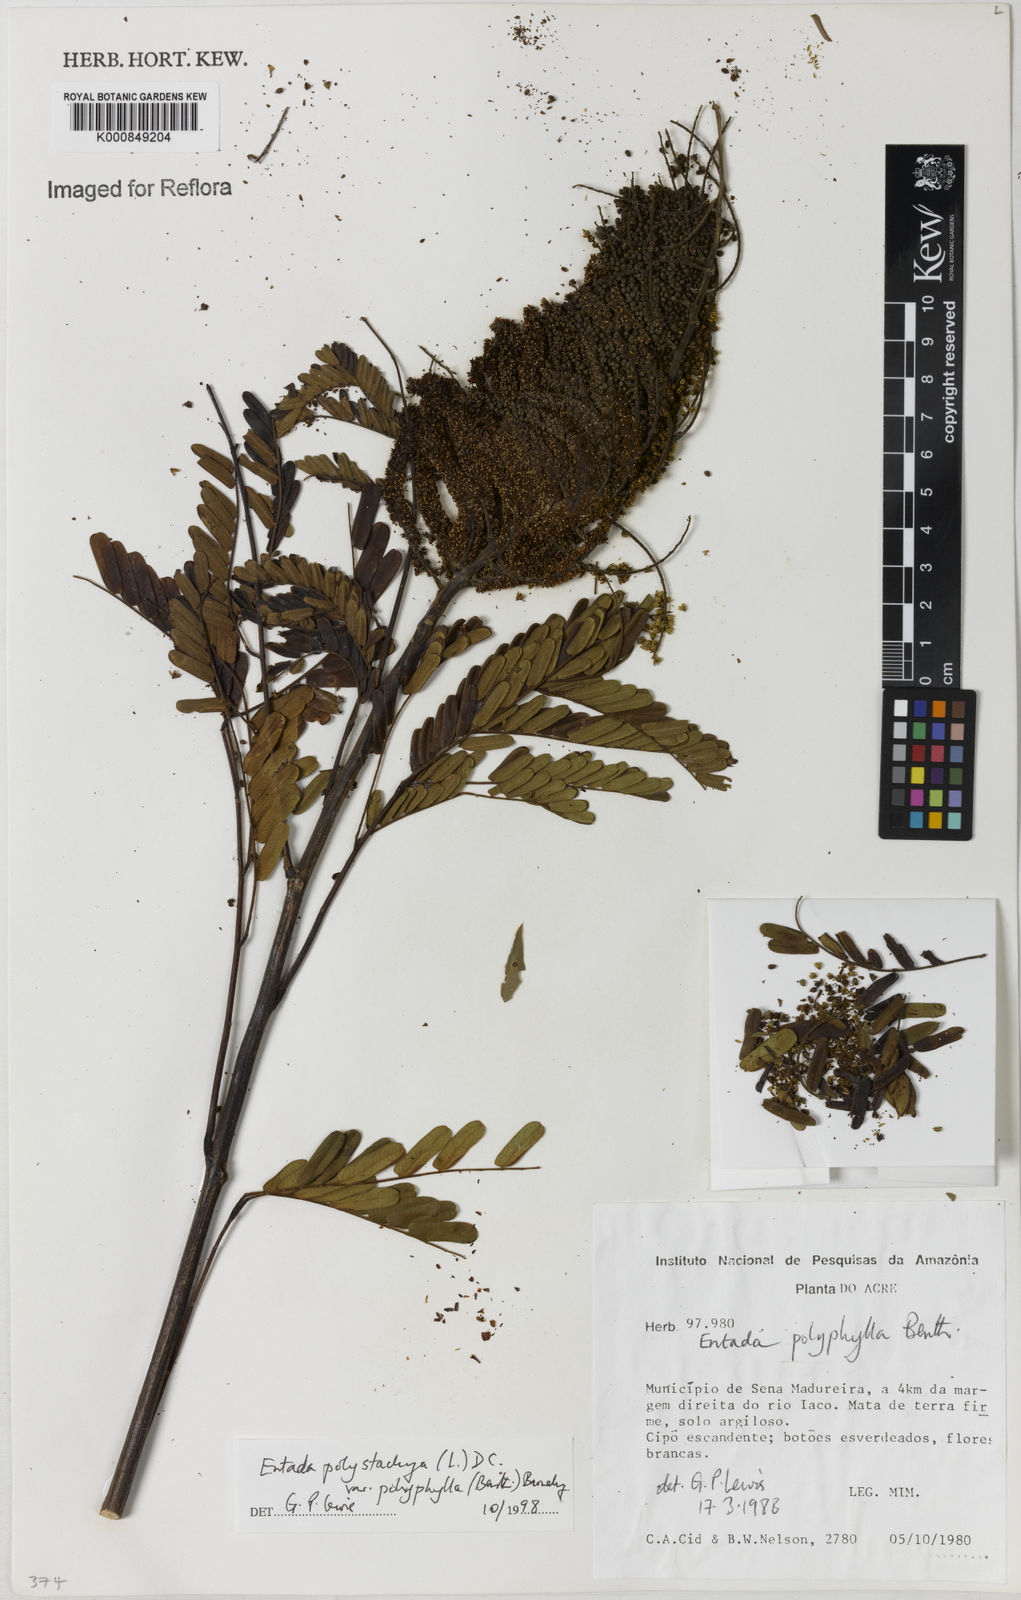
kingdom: Plantae
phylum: Tracheophyta
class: Magnoliopsida
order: Fabales
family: Fabaceae
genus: Entada
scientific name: Entada polyphylla
